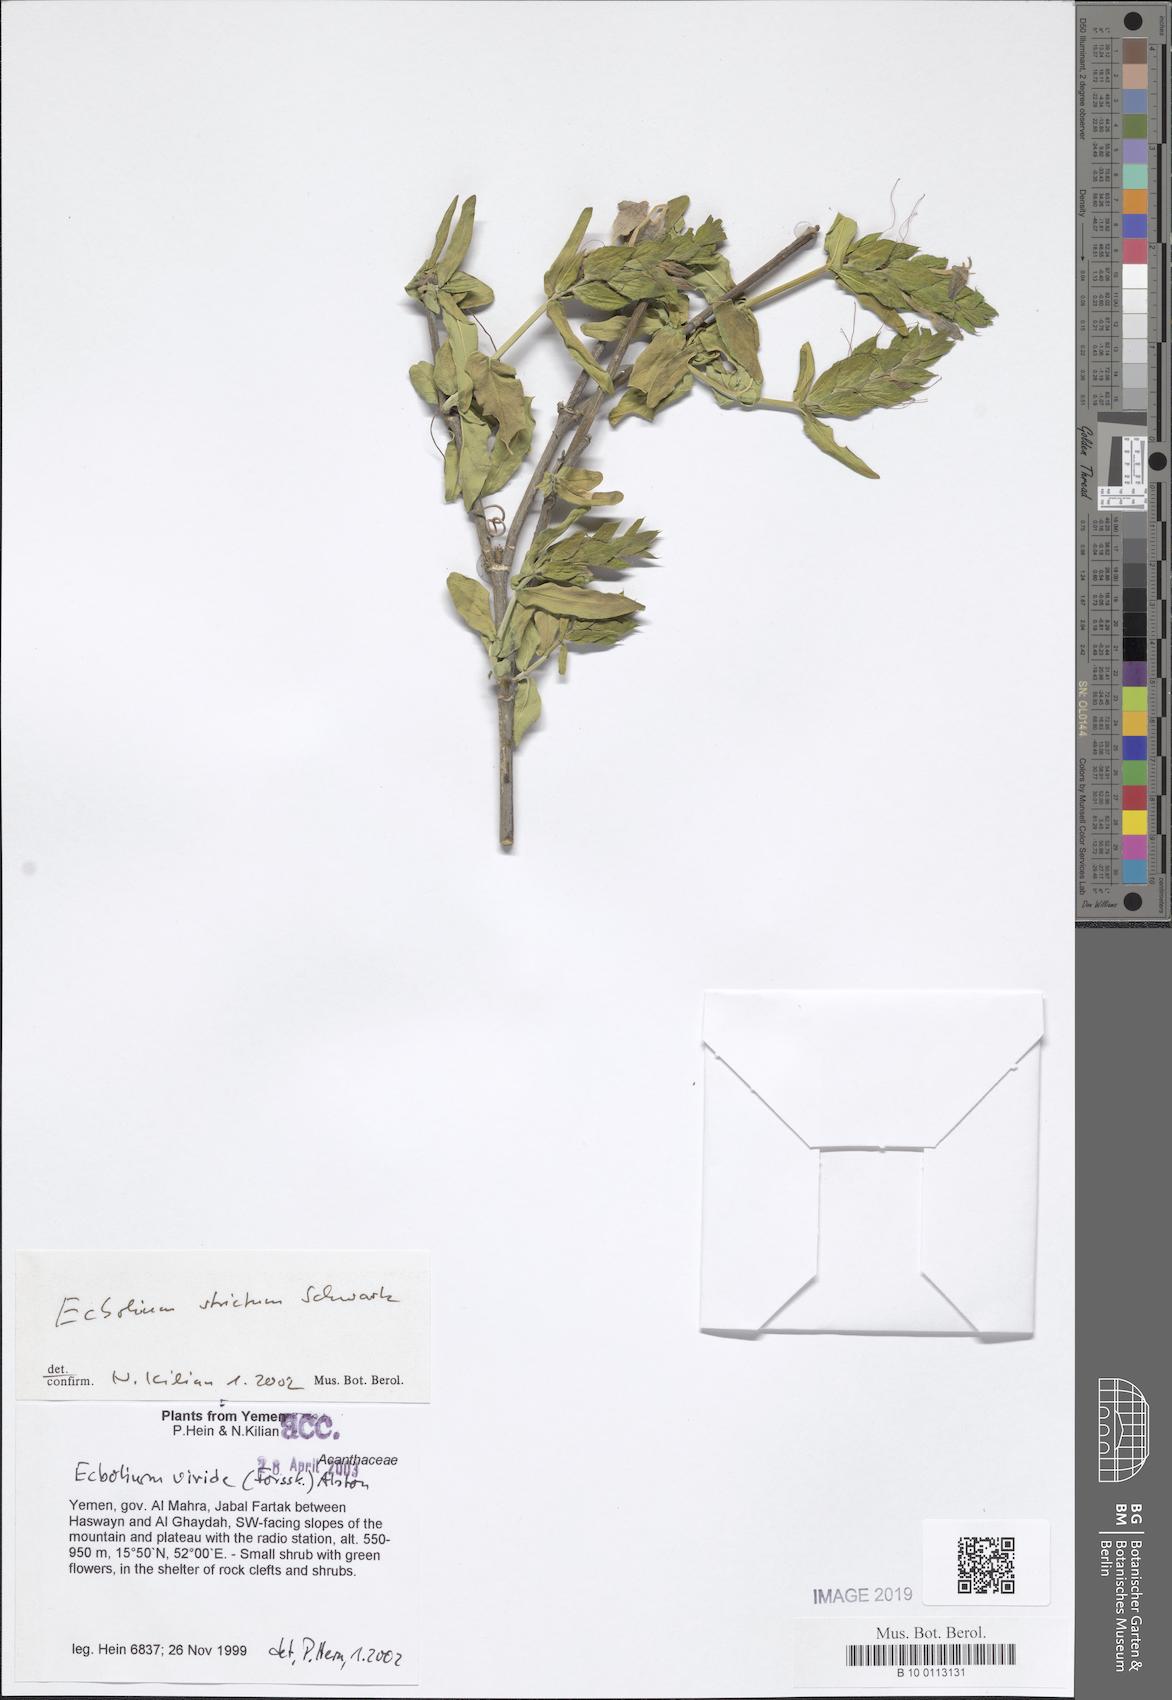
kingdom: Plantae
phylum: Tracheophyta
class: Magnoliopsida
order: Lamiales
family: Acanthaceae
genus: Ecbolium
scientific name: Ecbolium viride
